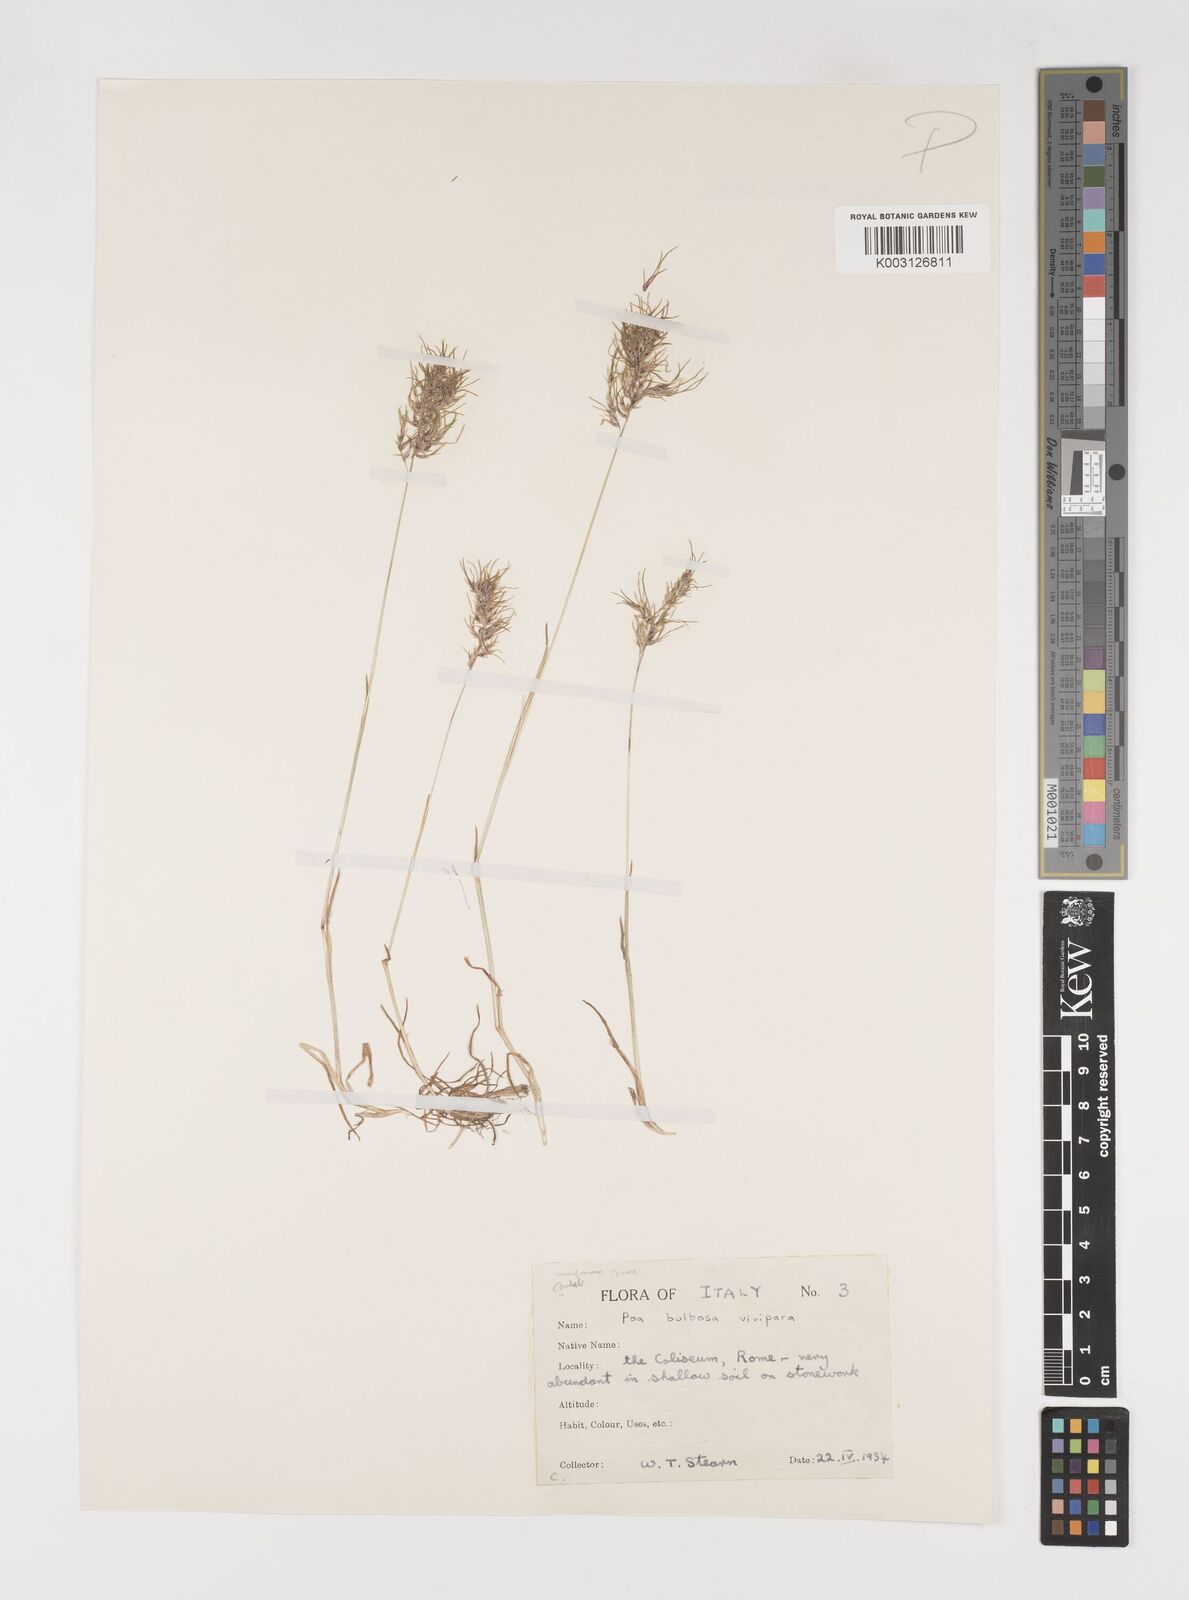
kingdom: Plantae
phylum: Tracheophyta
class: Liliopsida
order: Poales
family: Poaceae
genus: Poa
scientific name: Poa bulbosa
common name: Bulbous bluegrass
